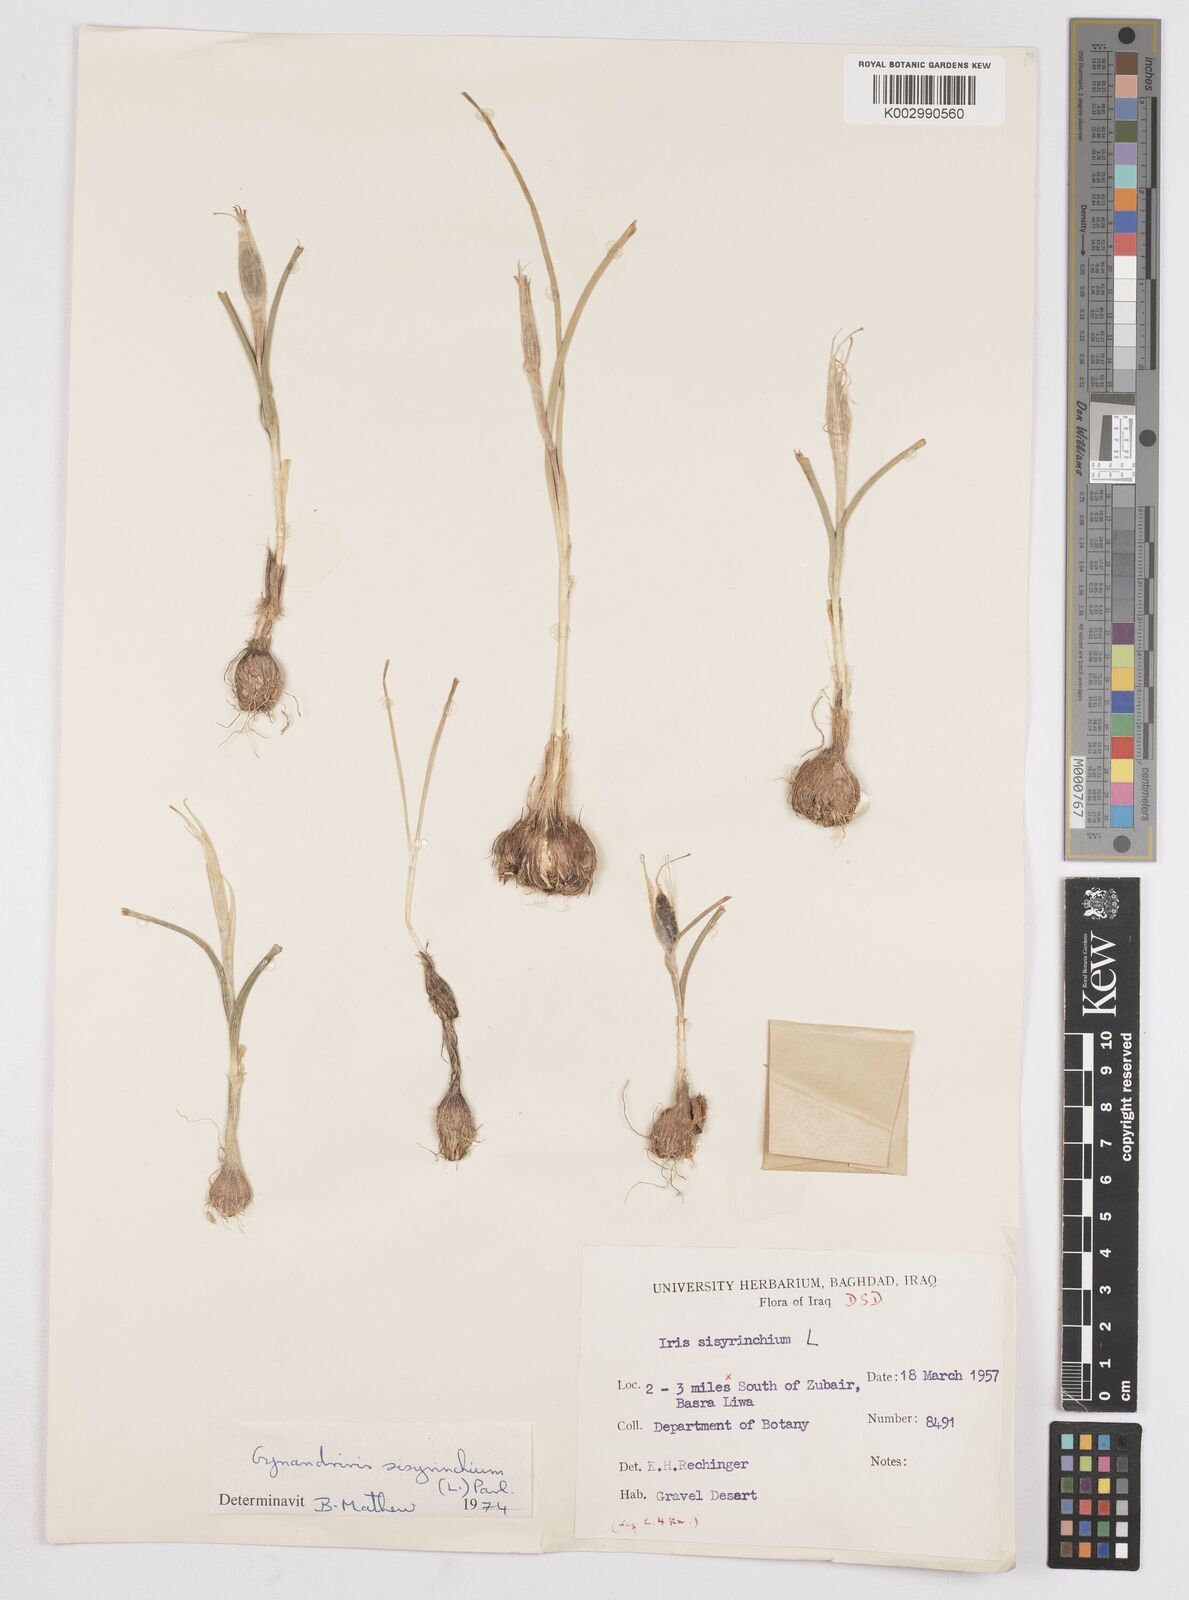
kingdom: Plantae
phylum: Tracheophyta
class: Liliopsida
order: Asparagales
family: Iridaceae
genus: Moraea
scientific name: Moraea sisyrinchium
